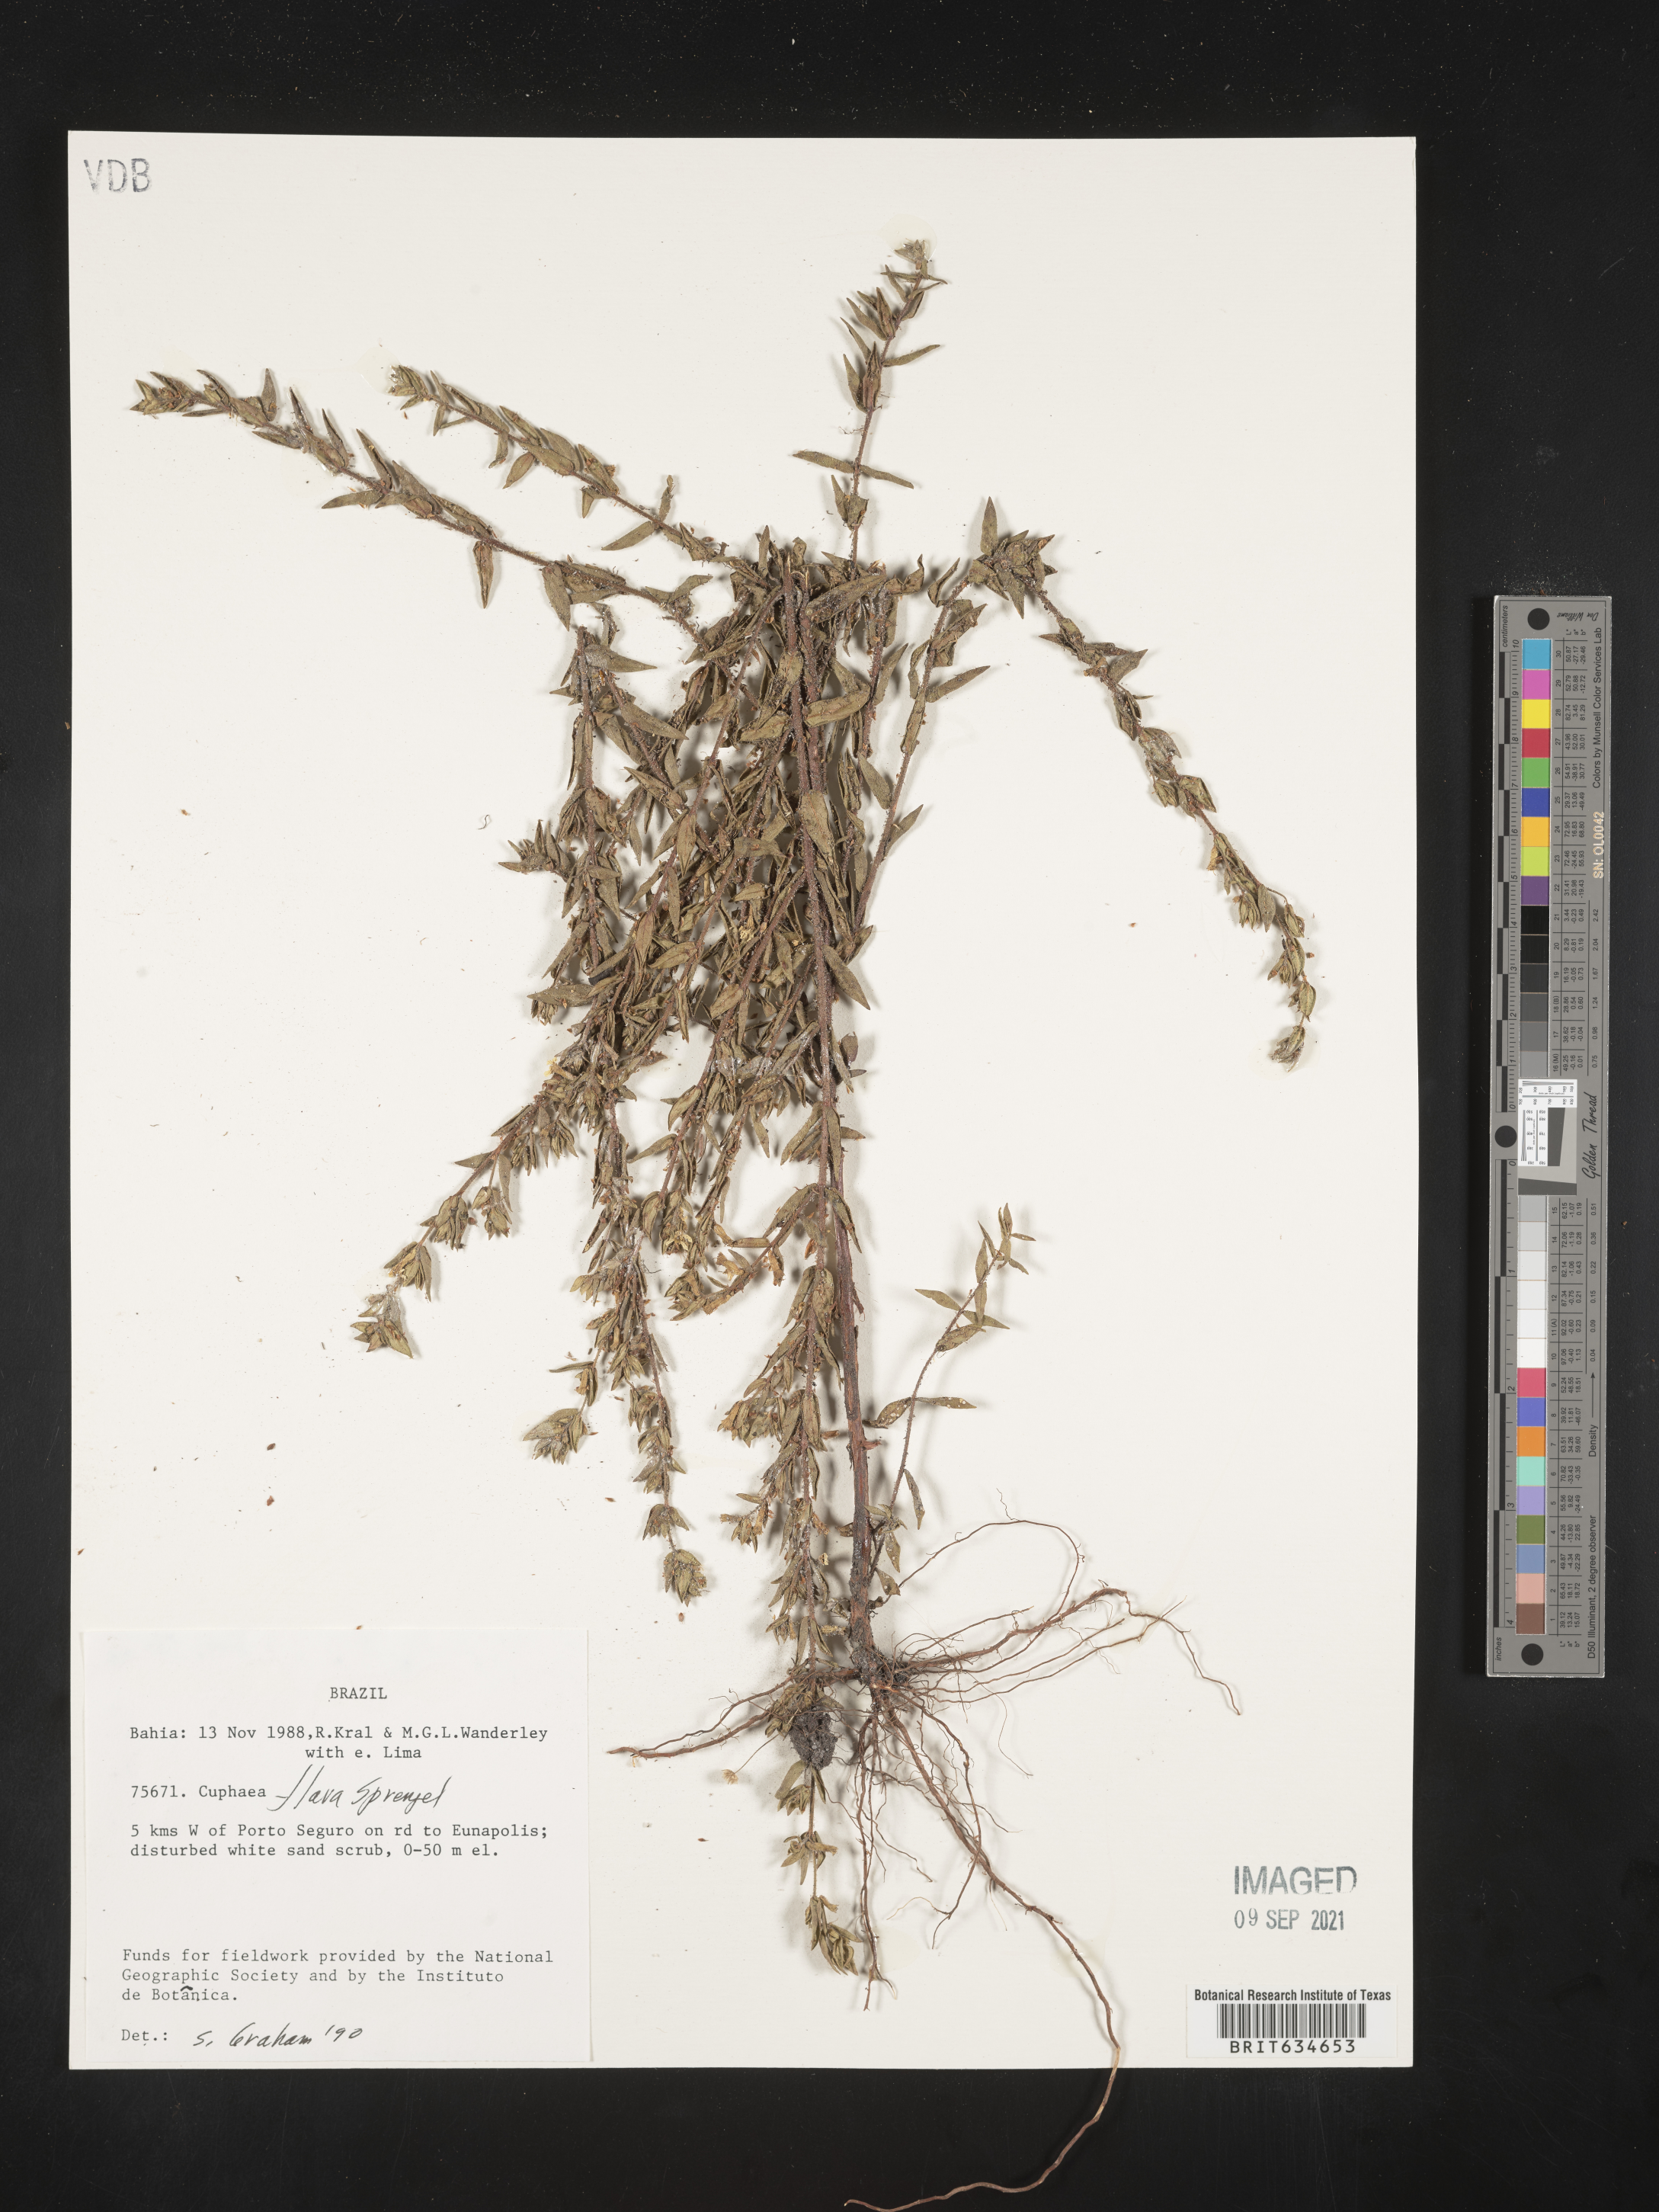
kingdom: Plantae
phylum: Tracheophyta
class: Magnoliopsida
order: Myrtales
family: Lythraceae
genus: Cuphea
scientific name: Cuphea
